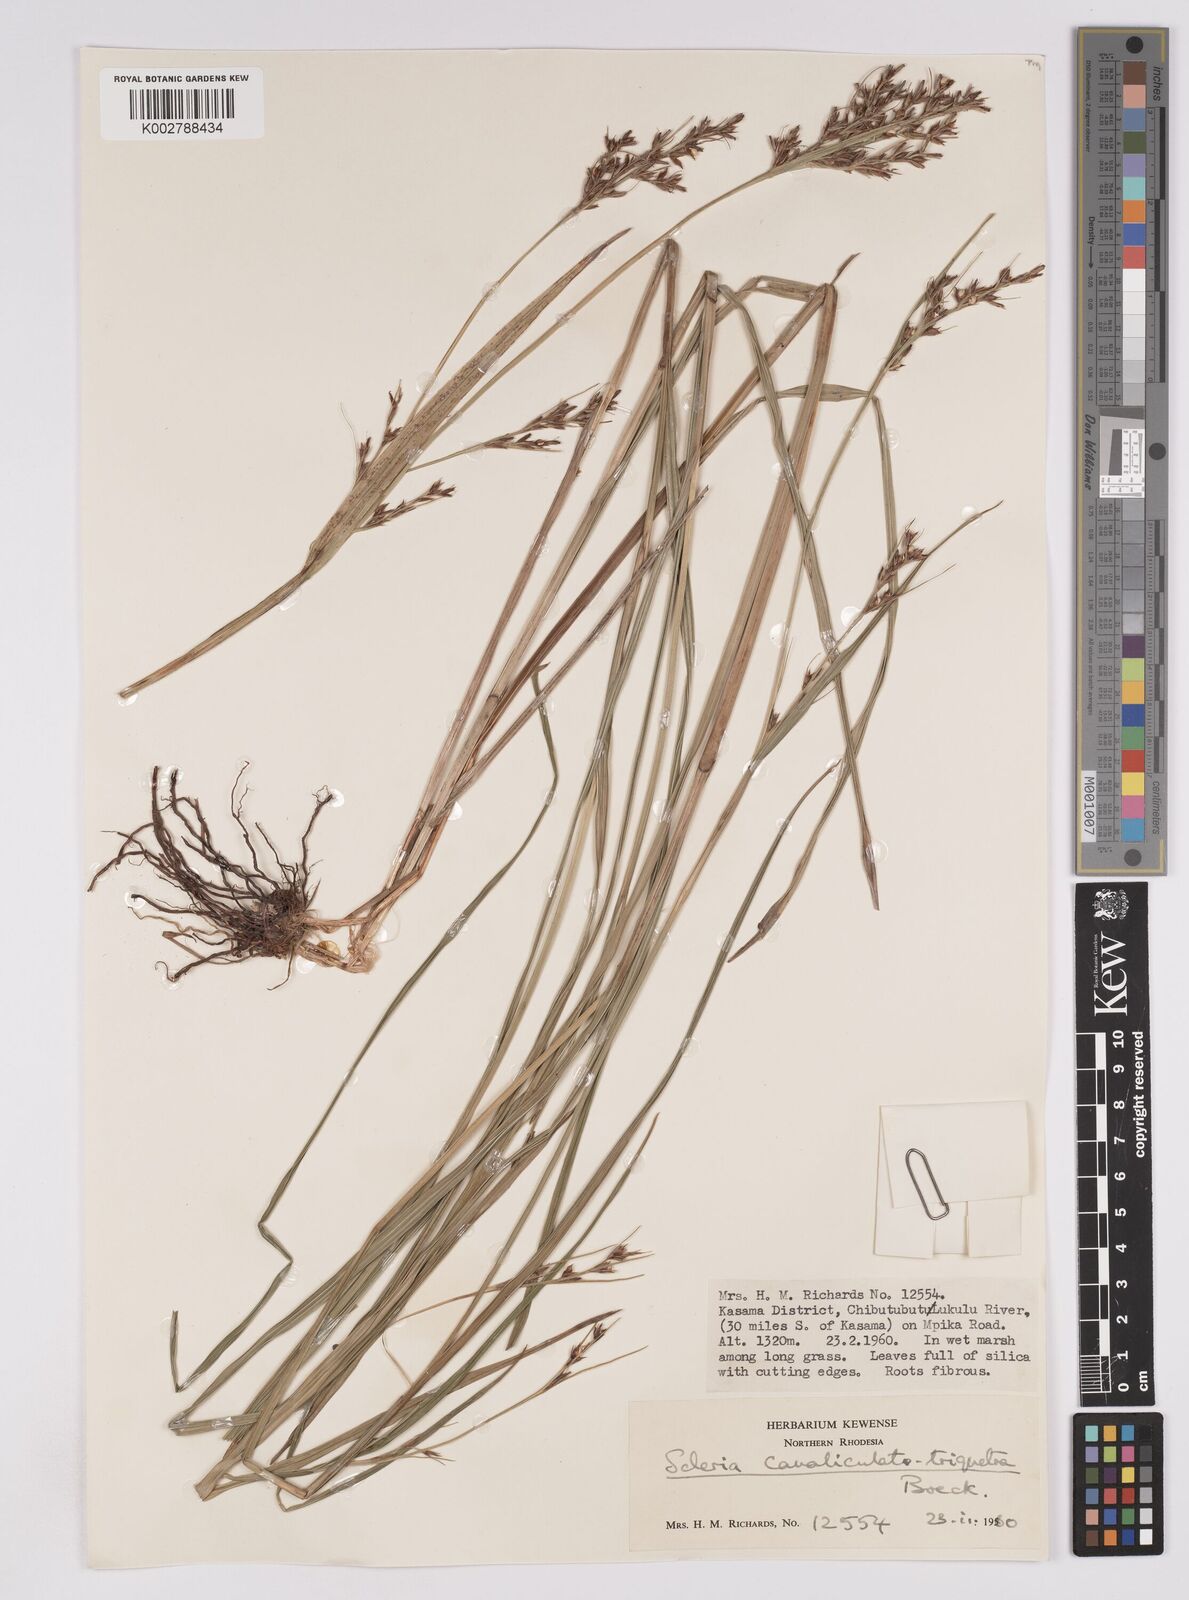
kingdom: Plantae
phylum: Tracheophyta
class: Liliopsida
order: Poales
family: Cyperaceae
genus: Scleria
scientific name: Scleria lagoensis
